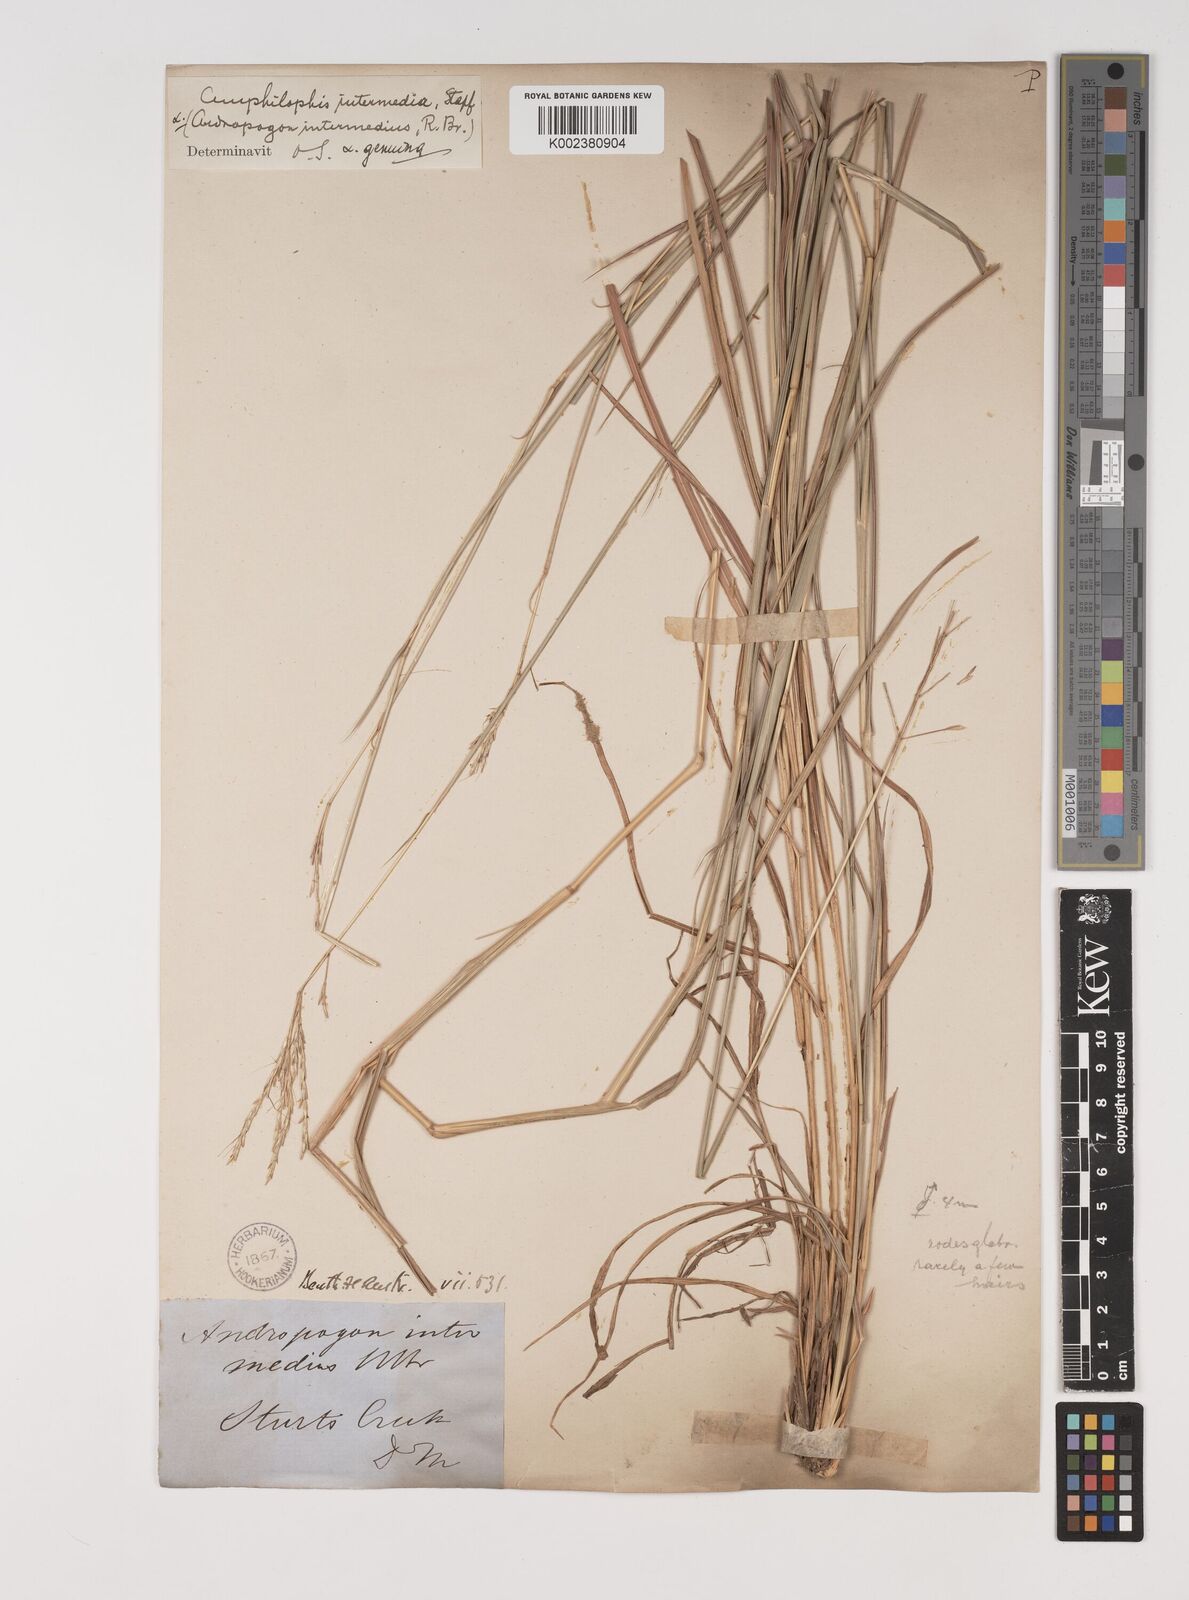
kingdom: Plantae
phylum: Tracheophyta
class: Liliopsida
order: Poales
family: Poaceae
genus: Bothriochloa
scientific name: Bothriochloa bladhii
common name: Caucasian bluestem
